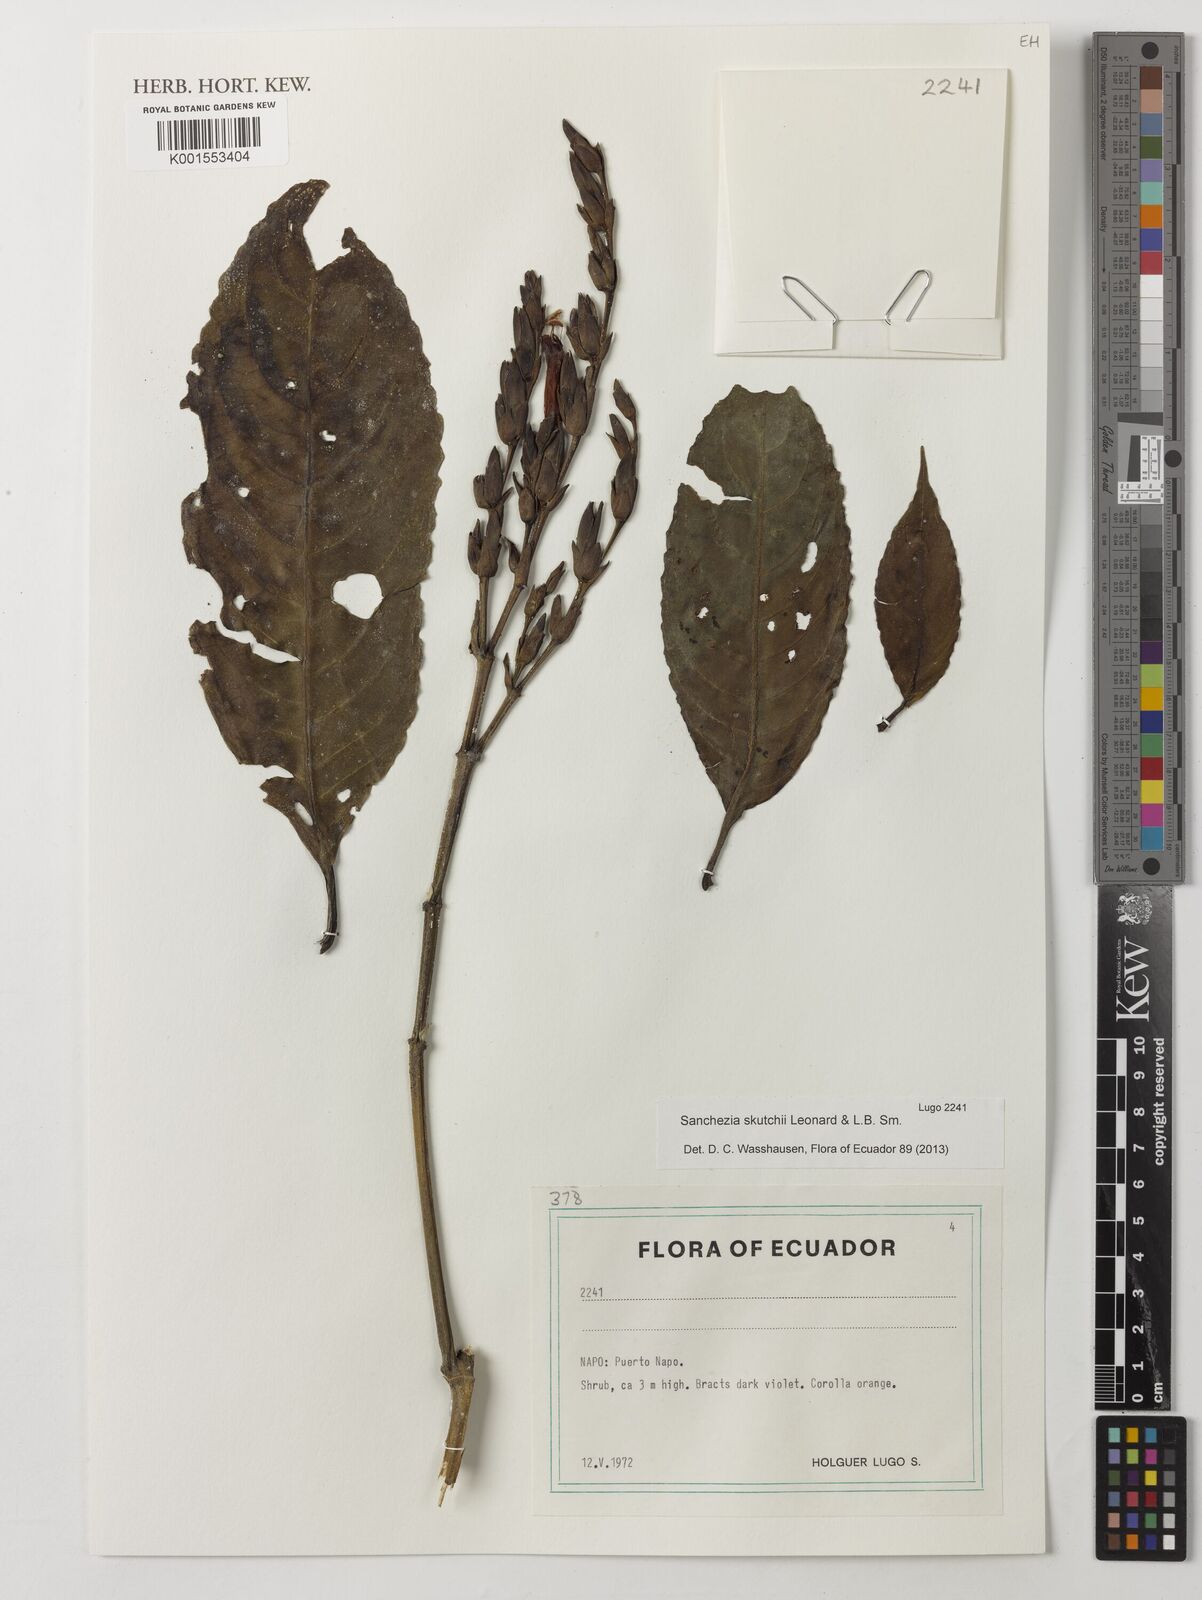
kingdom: Plantae
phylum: Tracheophyta
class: Magnoliopsida
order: Lamiales
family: Acanthaceae
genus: Sanchezia
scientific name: Sanchezia putumayensis
